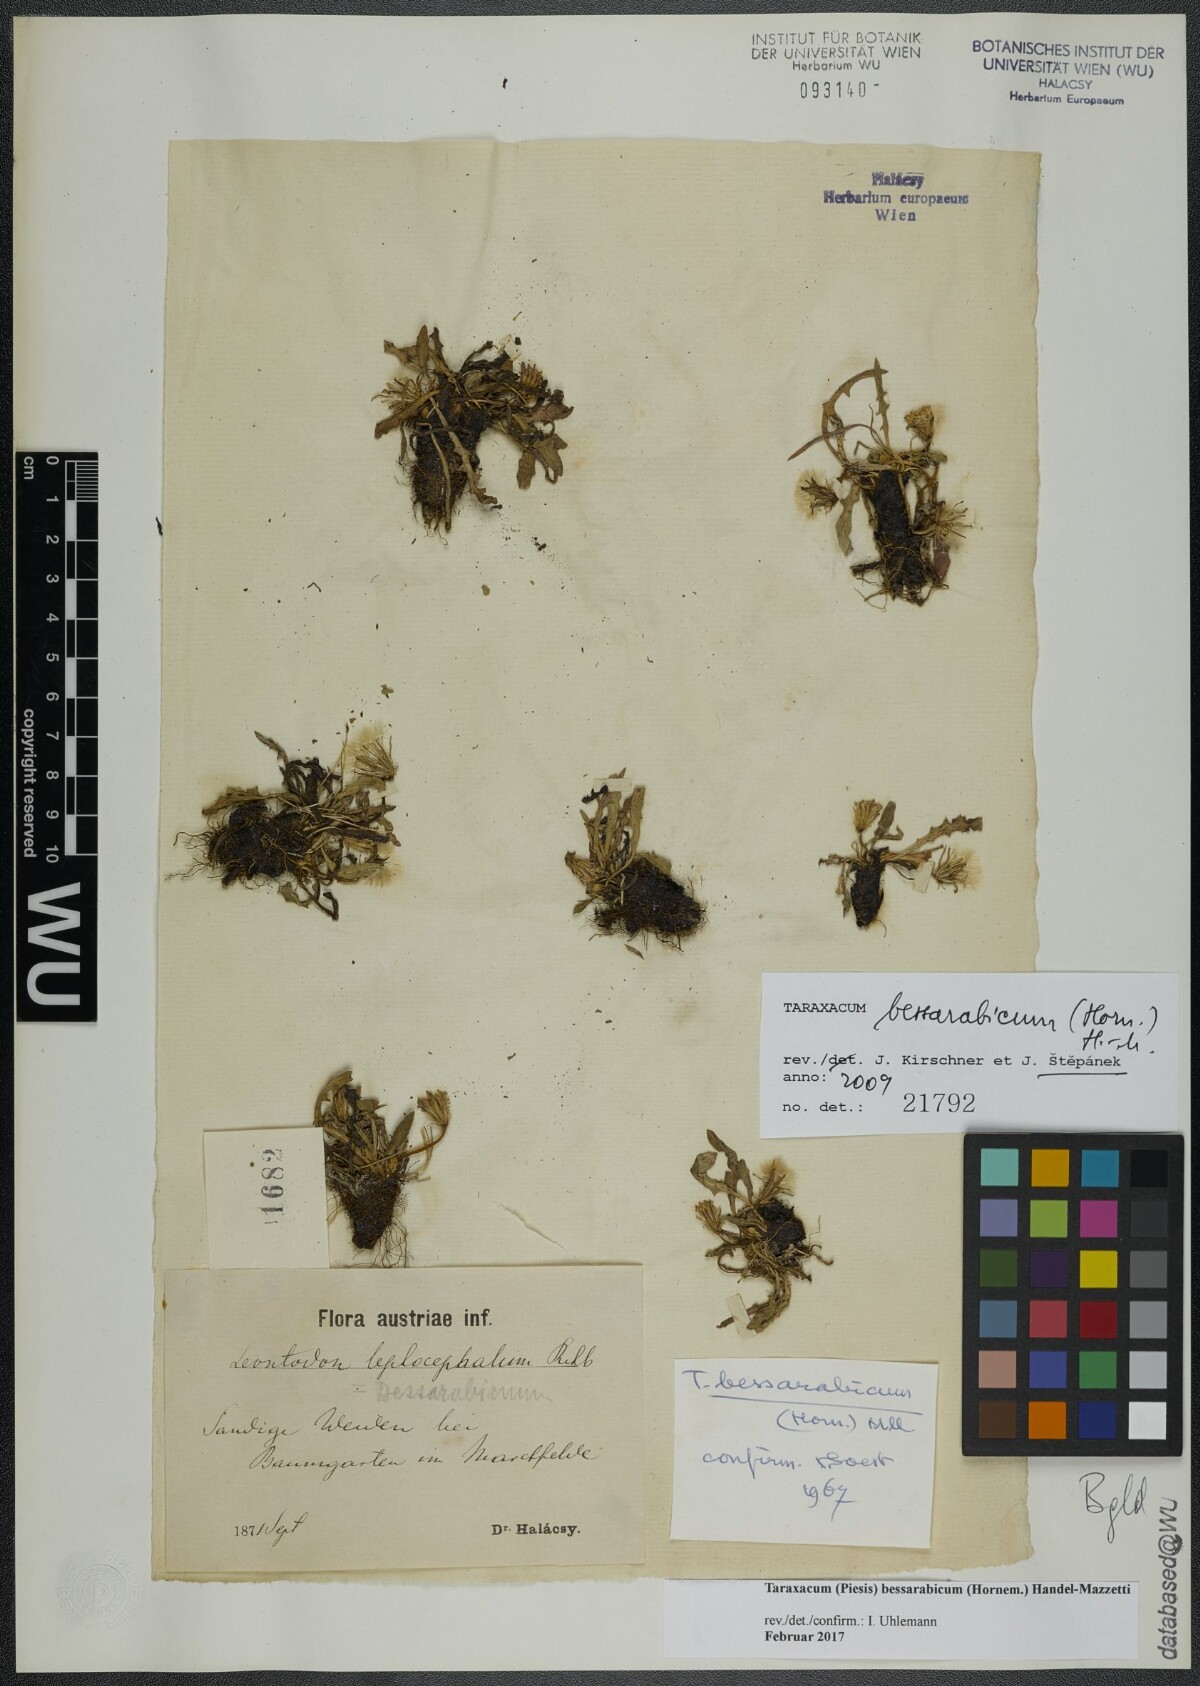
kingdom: Plantae
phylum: Tracheophyta
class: Magnoliopsida
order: Asterales
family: Asteraceae
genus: Taraxacum
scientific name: Taraxacum bessarabicum
